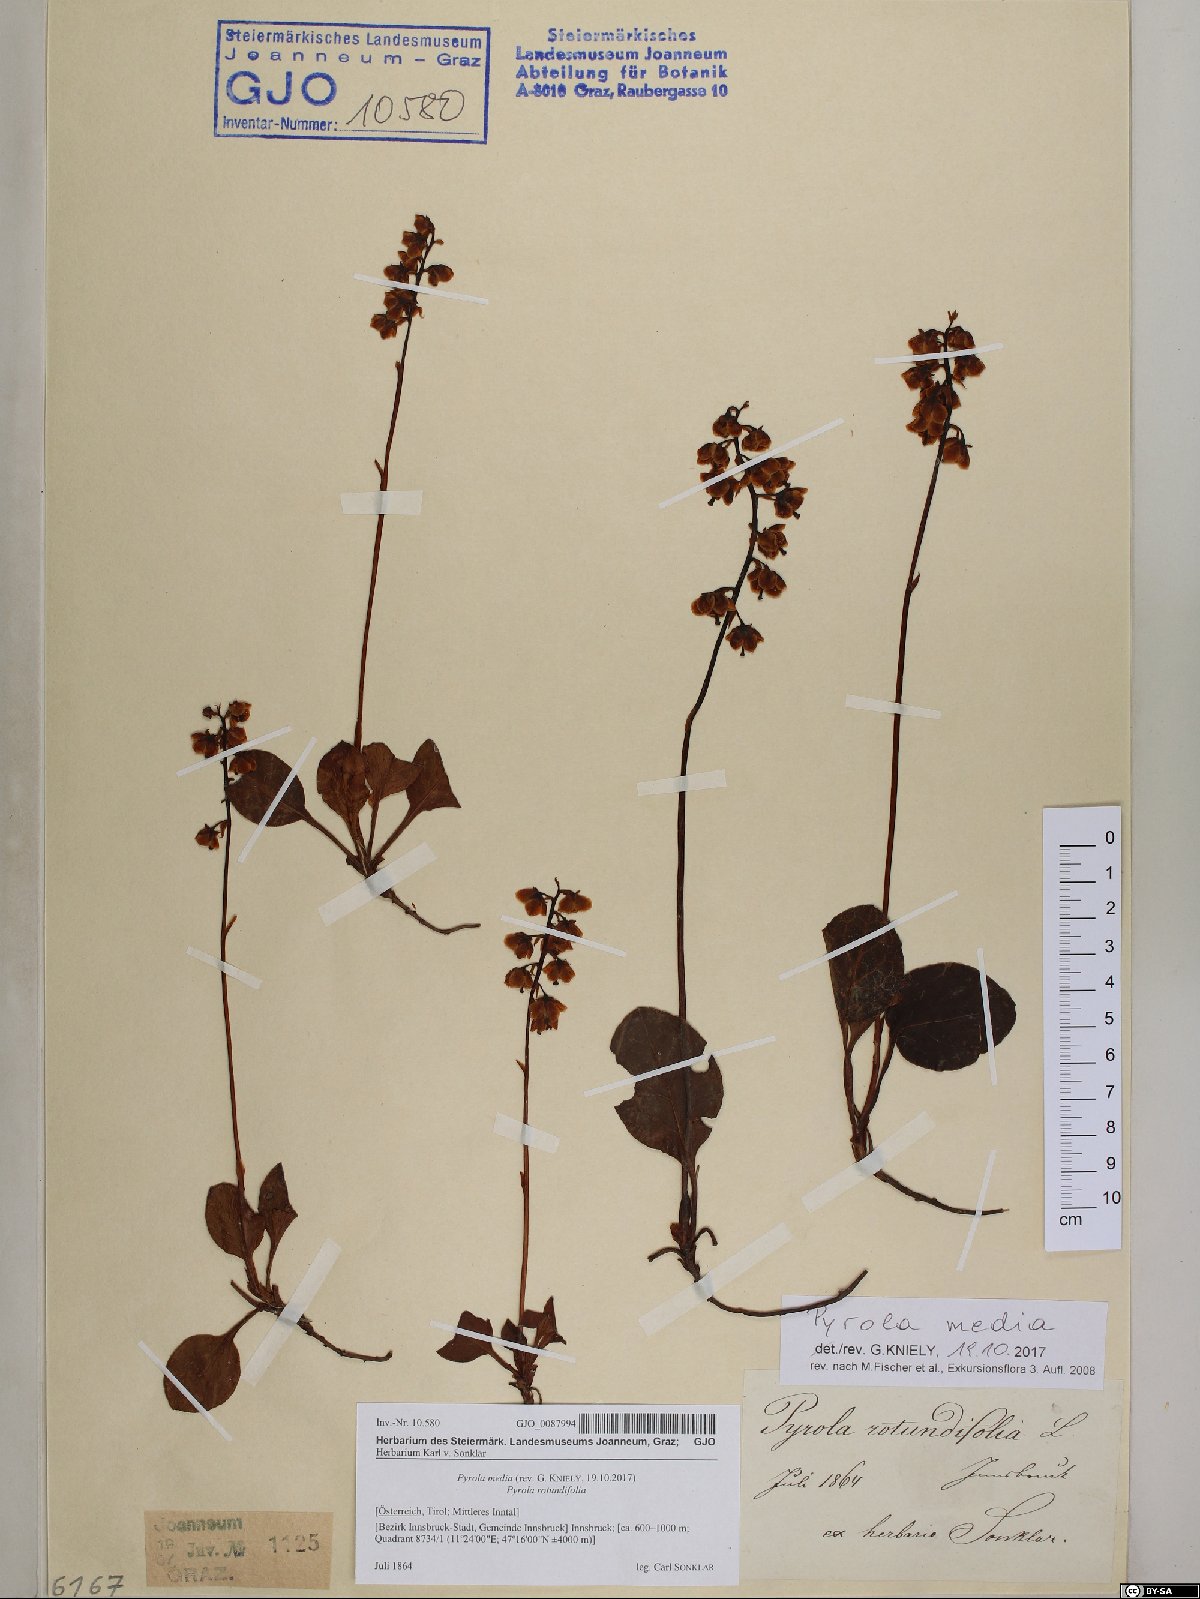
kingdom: Plantae
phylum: Tracheophyta
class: Magnoliopsida
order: Ericales
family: Ericaceae
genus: Pyrola
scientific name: Pyrola media
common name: Intermediate wintergreen
